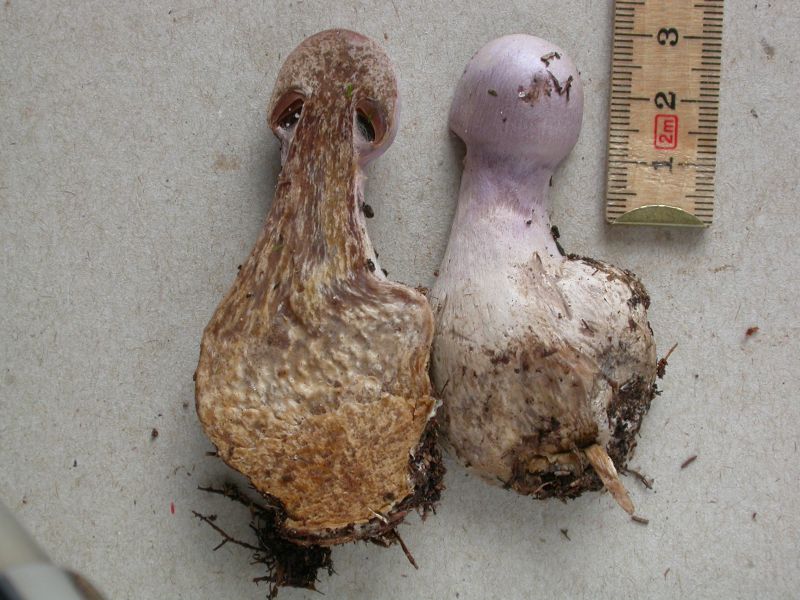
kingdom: Fungi
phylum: Basidiomycota
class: Agaricomycetes
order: Agaricales
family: Cortinariaceae
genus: Cortinarius
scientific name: Cortinarius traganus
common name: safrankødet slørhat
